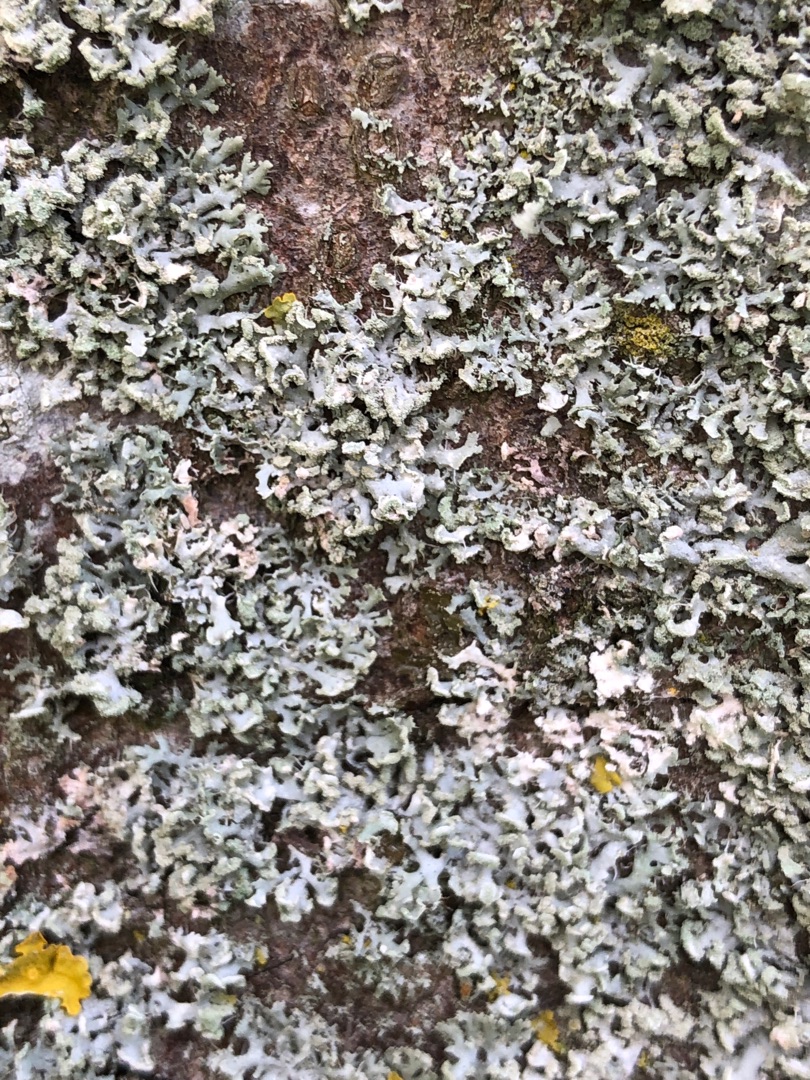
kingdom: Fungi
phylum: Ascomycota
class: Lecanoromycetes
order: Caliciales
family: Physciaceae
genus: Physcia
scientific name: Physcia tenella
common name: Spæd rosetlav
